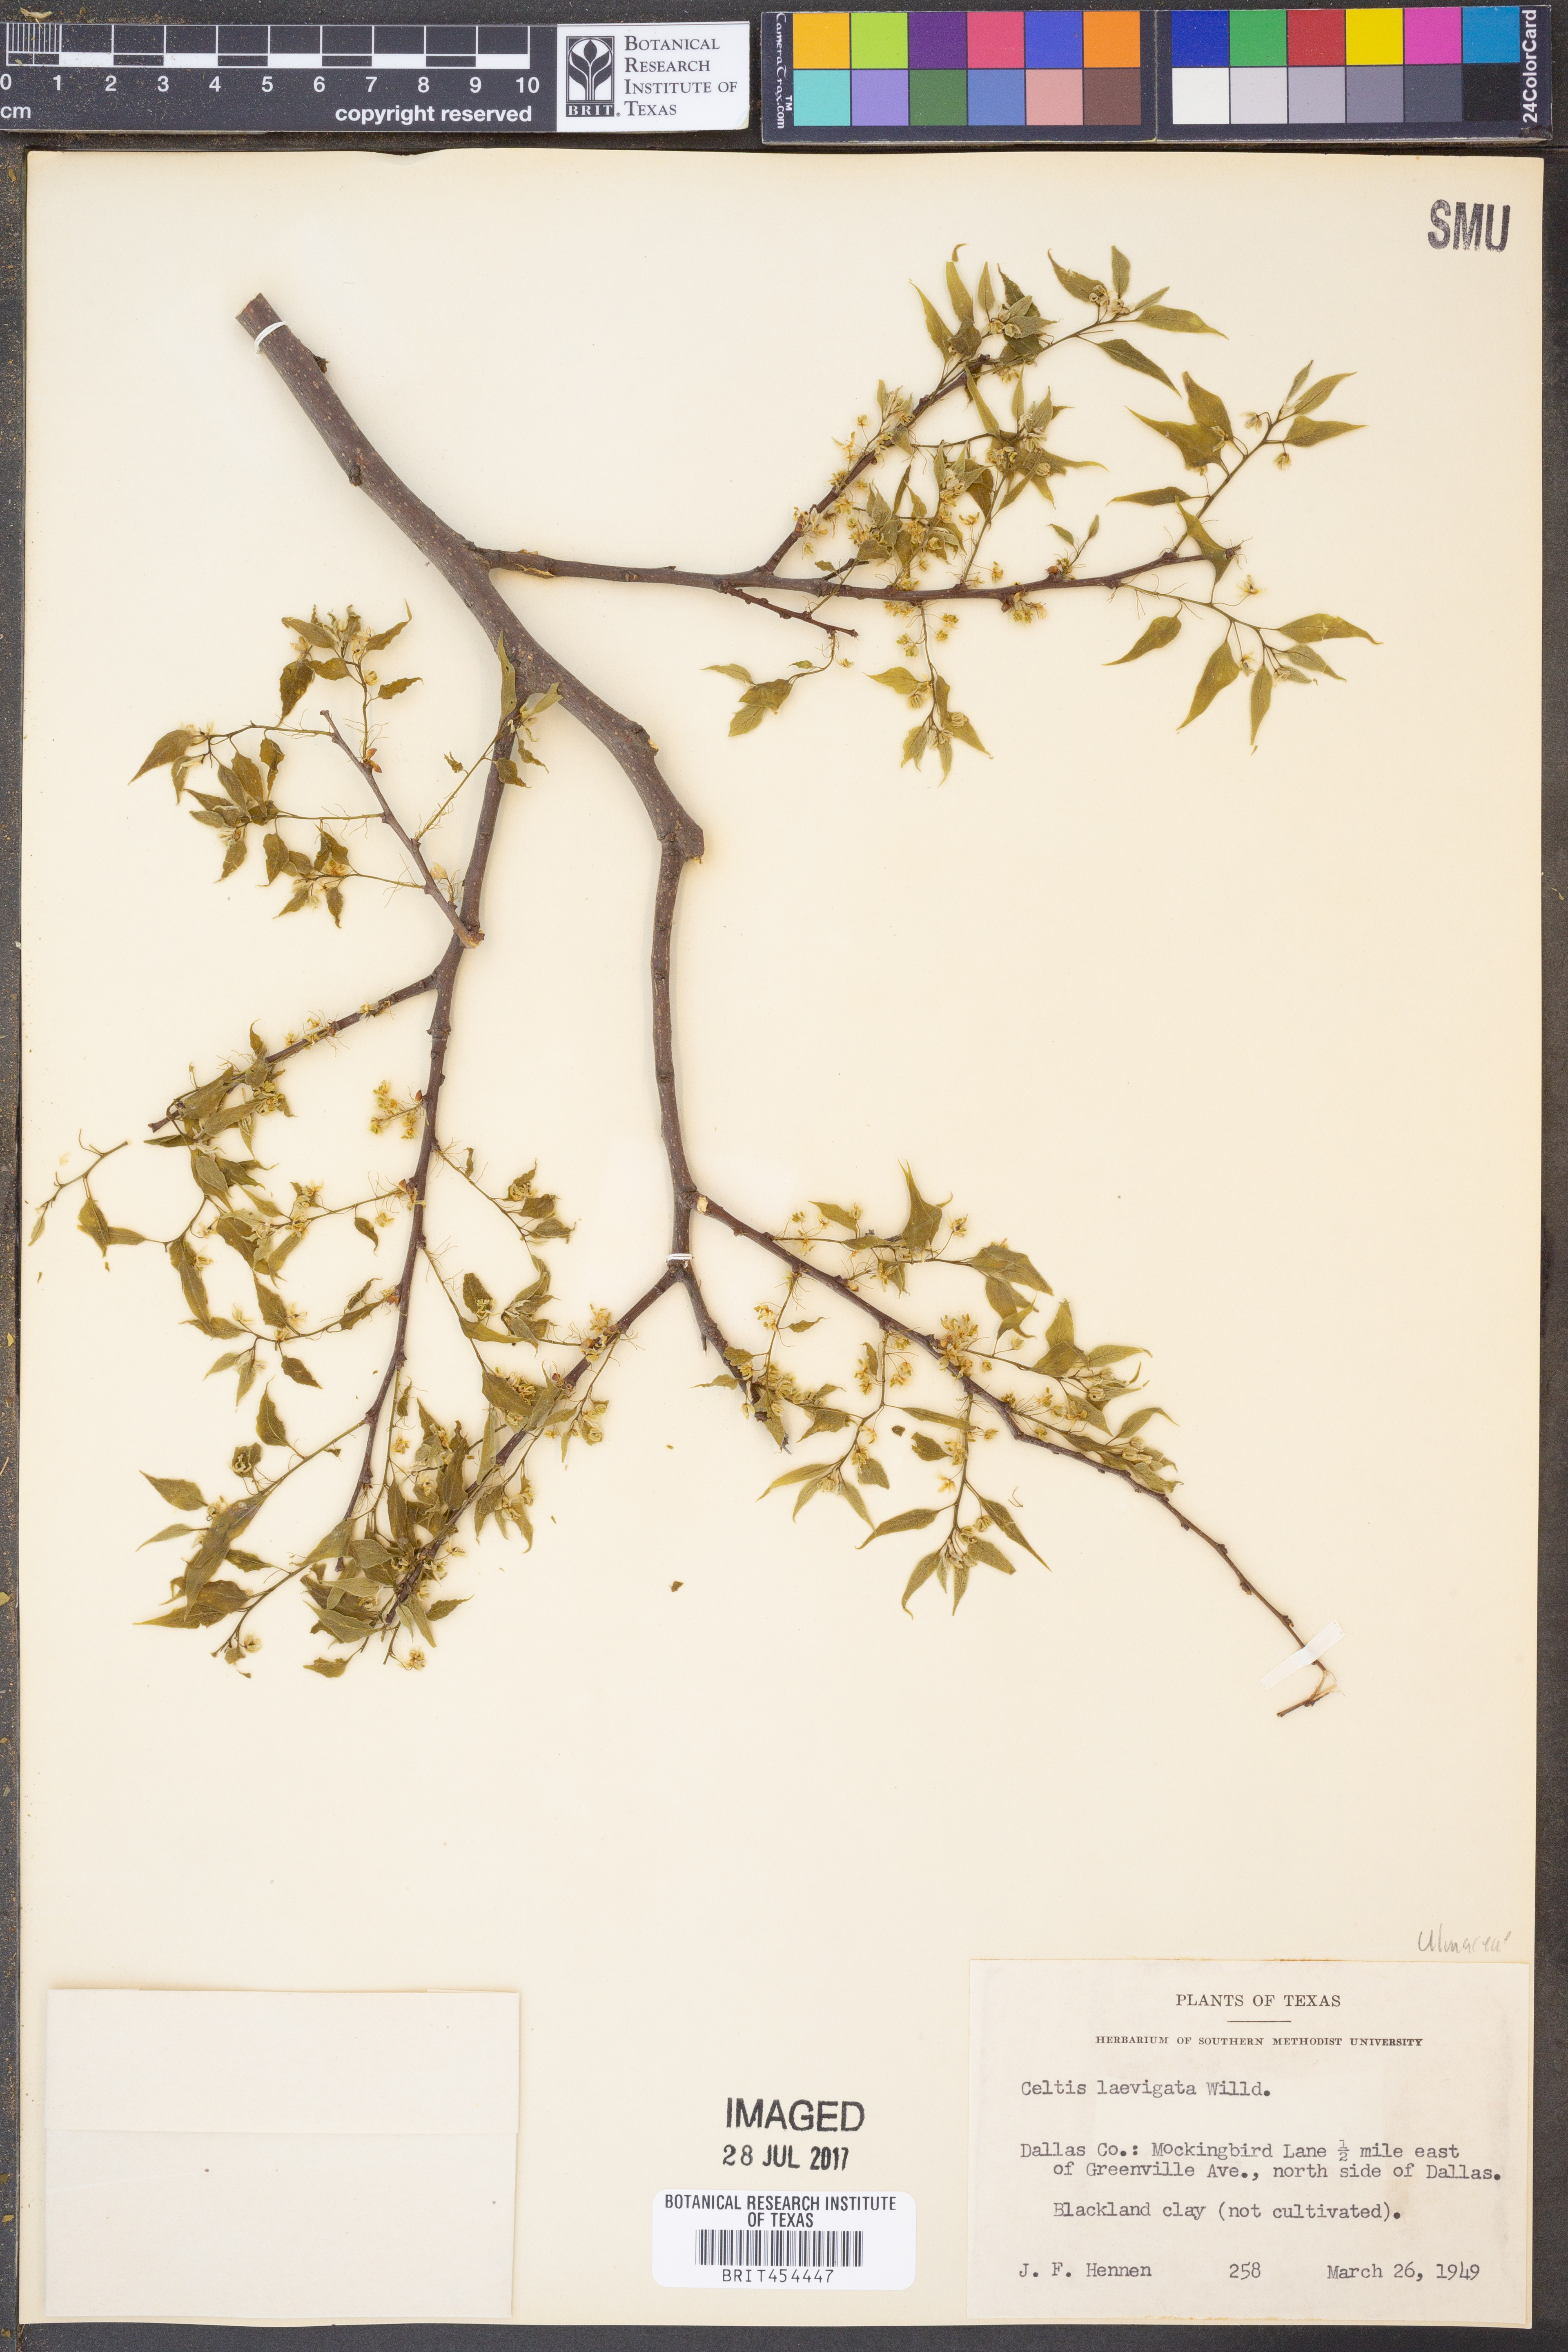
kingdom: Plantae
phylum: Tracheophyta
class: Magnoliopsida
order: Rosales
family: Cannabaceae
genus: Celtis
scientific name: Celtis laevigata
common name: Sugarberry
